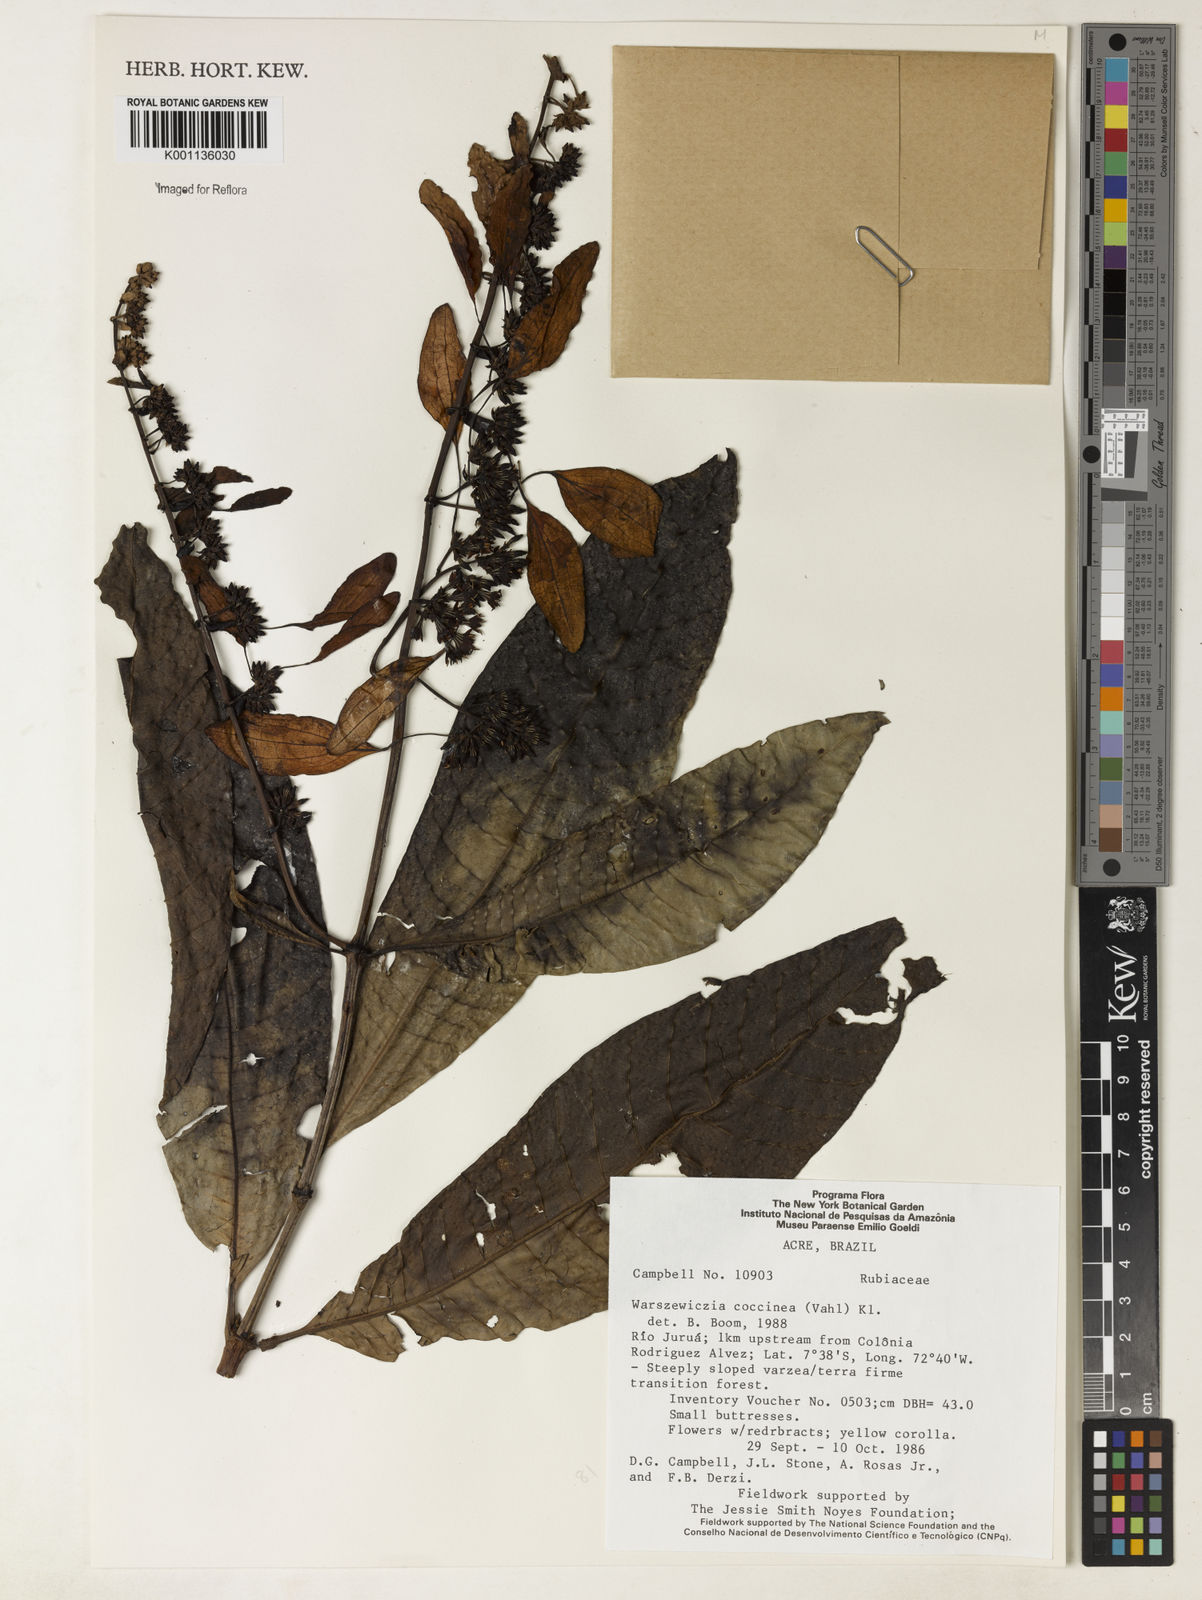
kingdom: Plantae
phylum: Tracheophyta
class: Magnoliopsida
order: Gentianales
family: Rubiaceae
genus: Warszewiczia
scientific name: Warszewiczia coccinea
